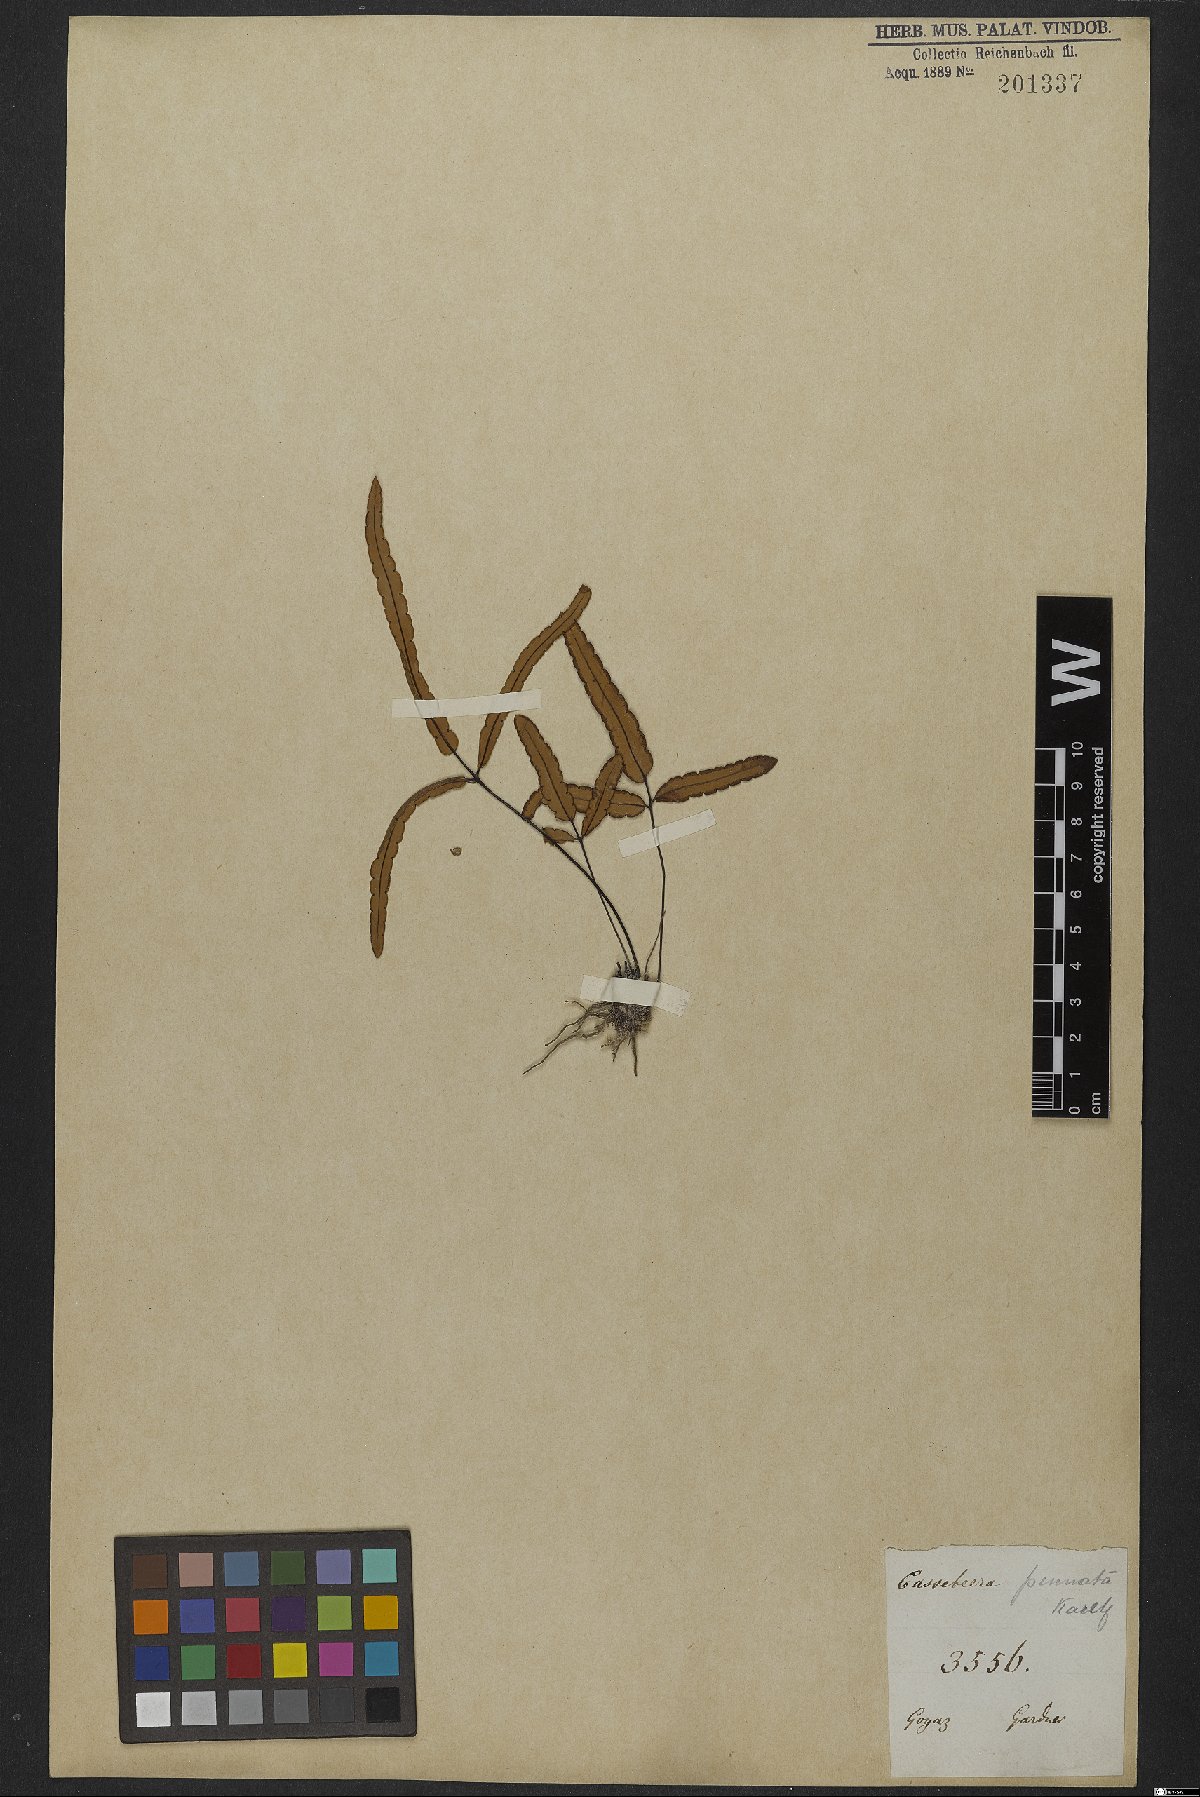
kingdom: Plantae
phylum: Tracheophyta
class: Polypodiopsida
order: Polypodiales
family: Pteridaceae
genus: Ormopteris
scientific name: Ormopteris pinnata
